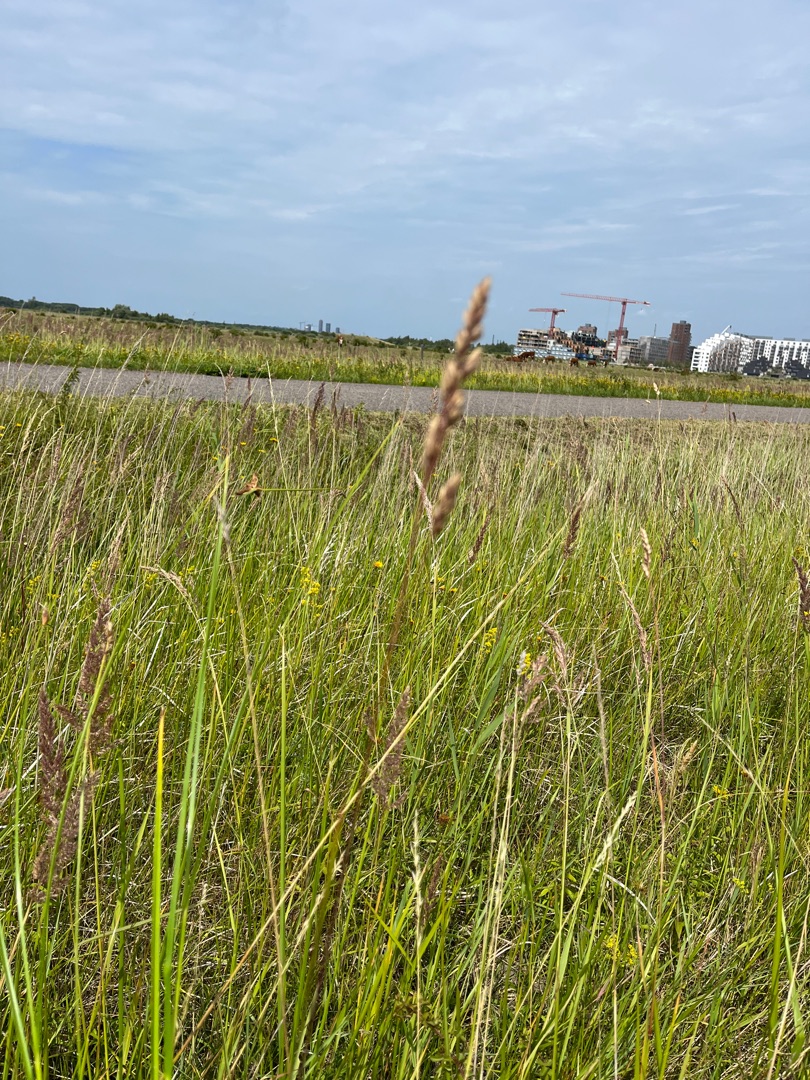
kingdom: Plantae
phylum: Tracheophyta
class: Liliopsida
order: Poales
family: Poaceae
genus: Dactylis
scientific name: Dactylis glomerata
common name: Almindelig hundegræs
